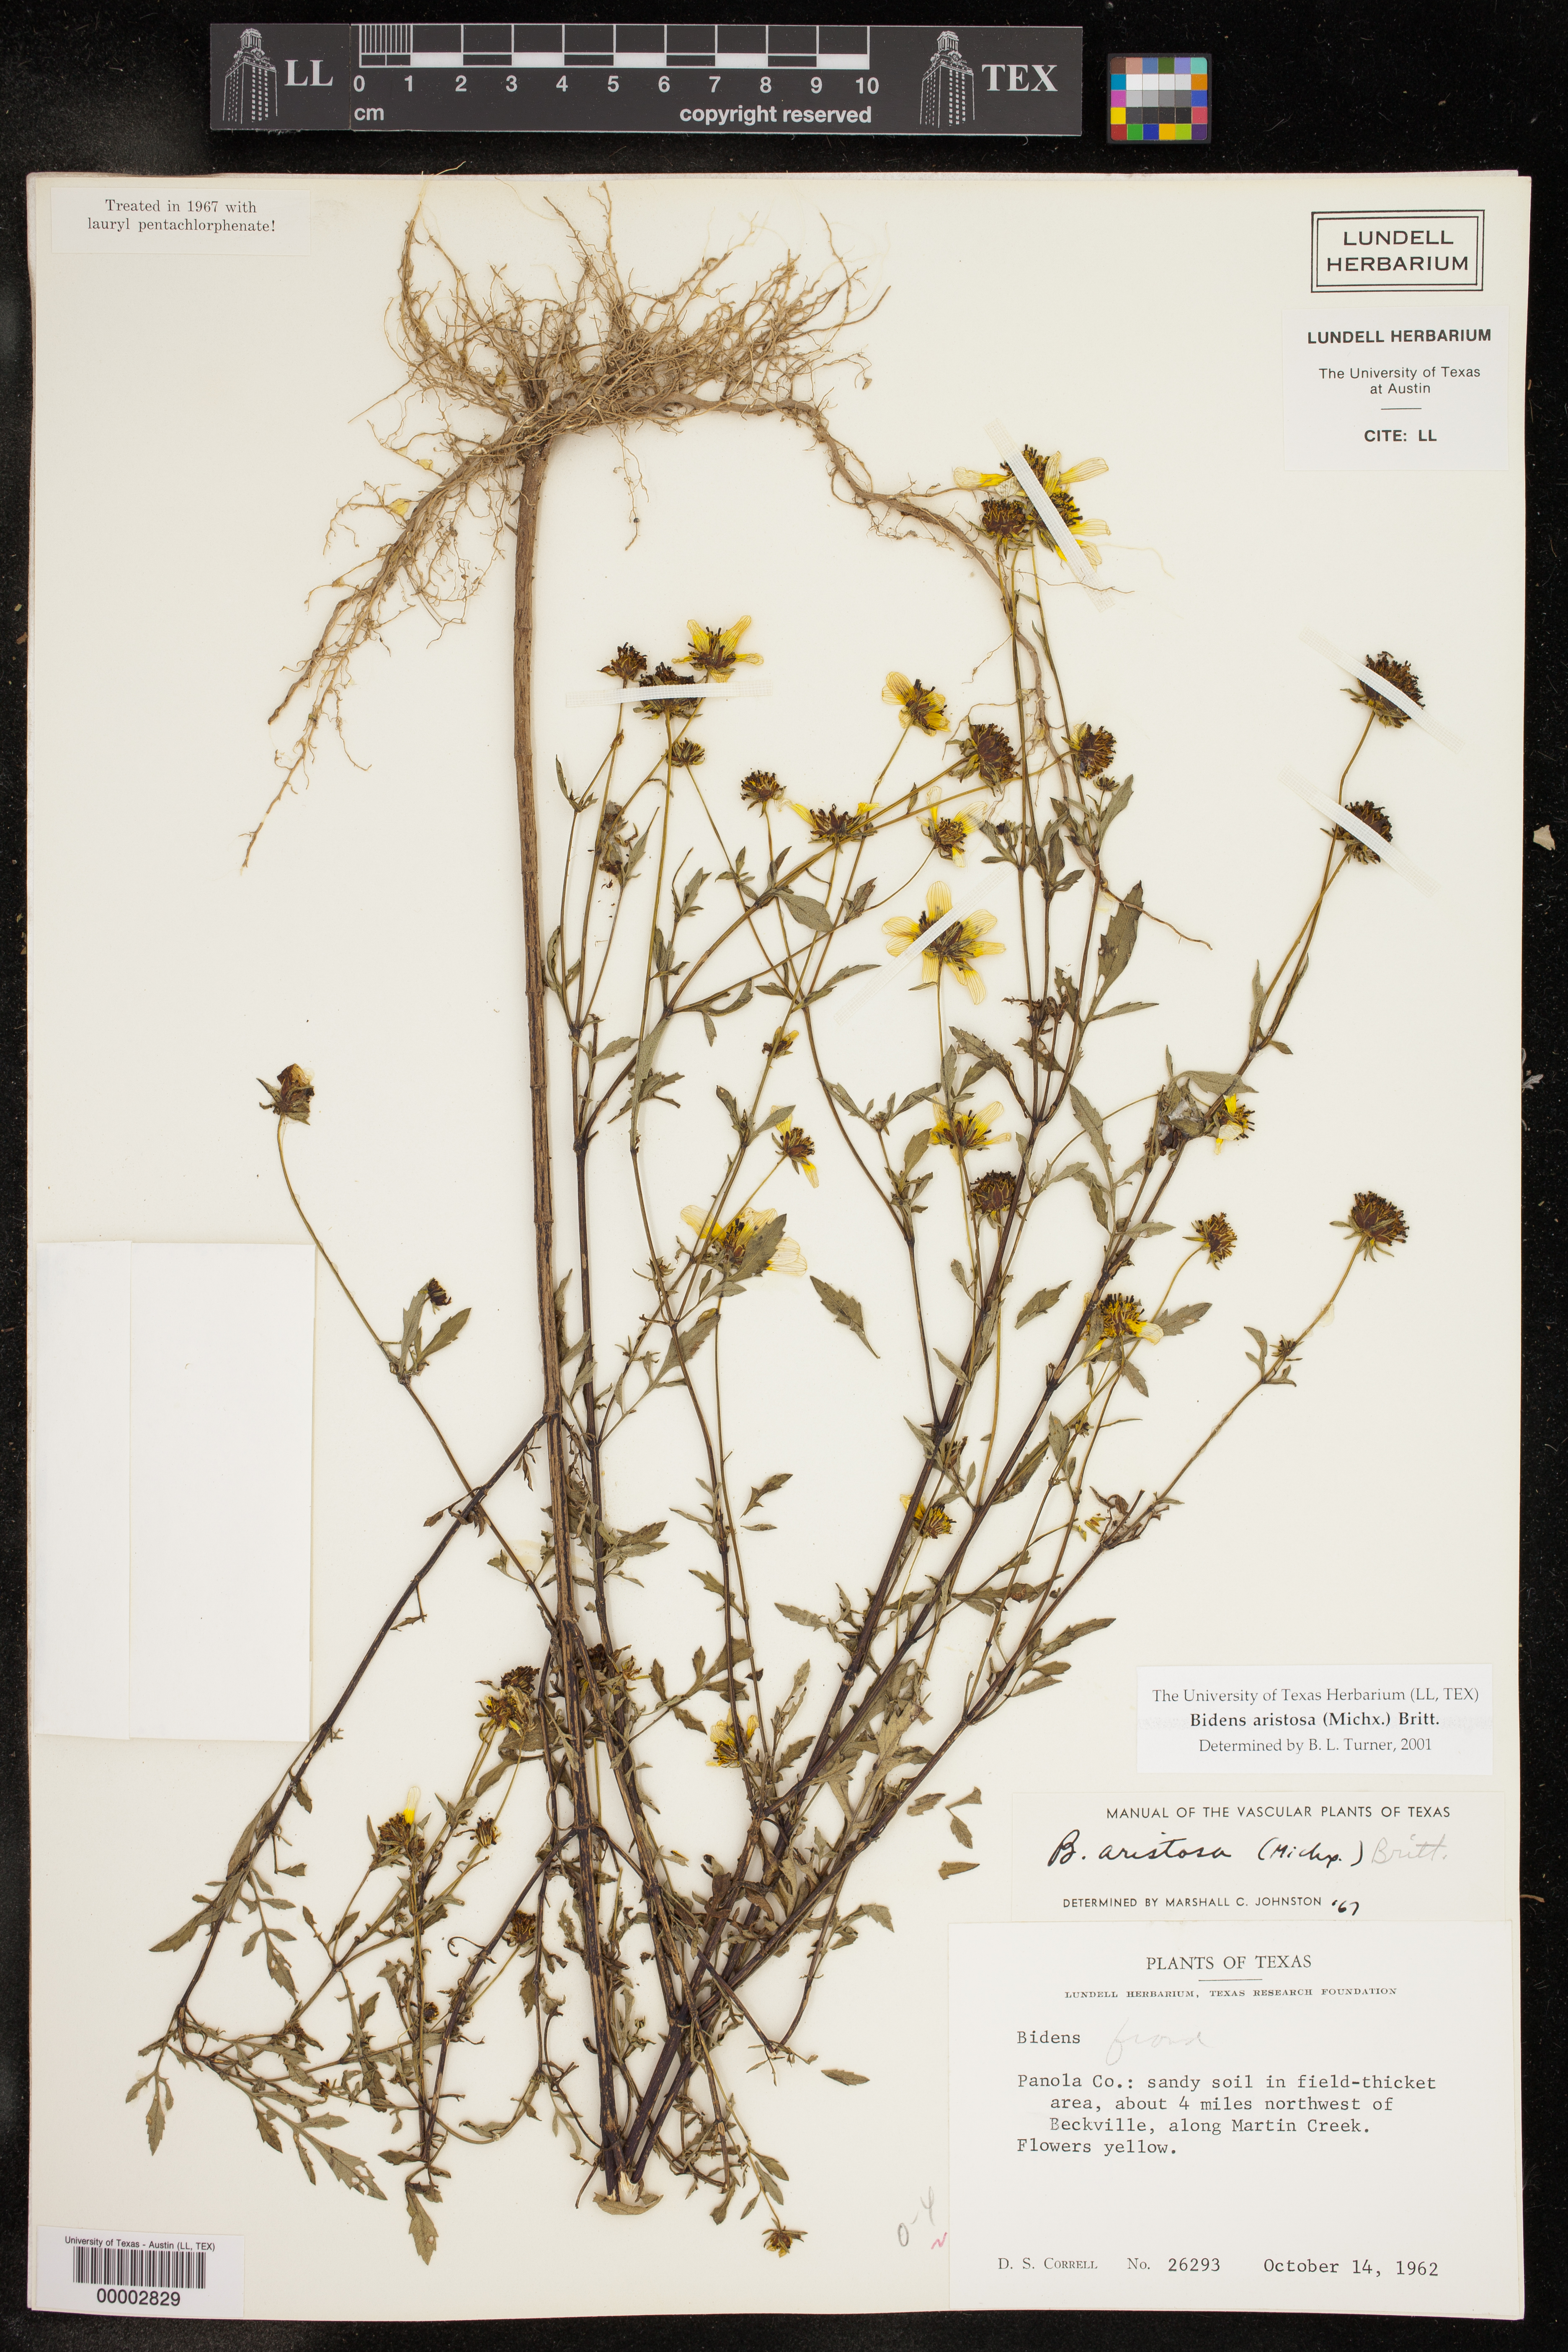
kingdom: Plantae
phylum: Tracheophyta
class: Magnoliopsida
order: Asterales
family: Asteraceae
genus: Bidens
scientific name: Bidens aristosa
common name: Western tickseed
